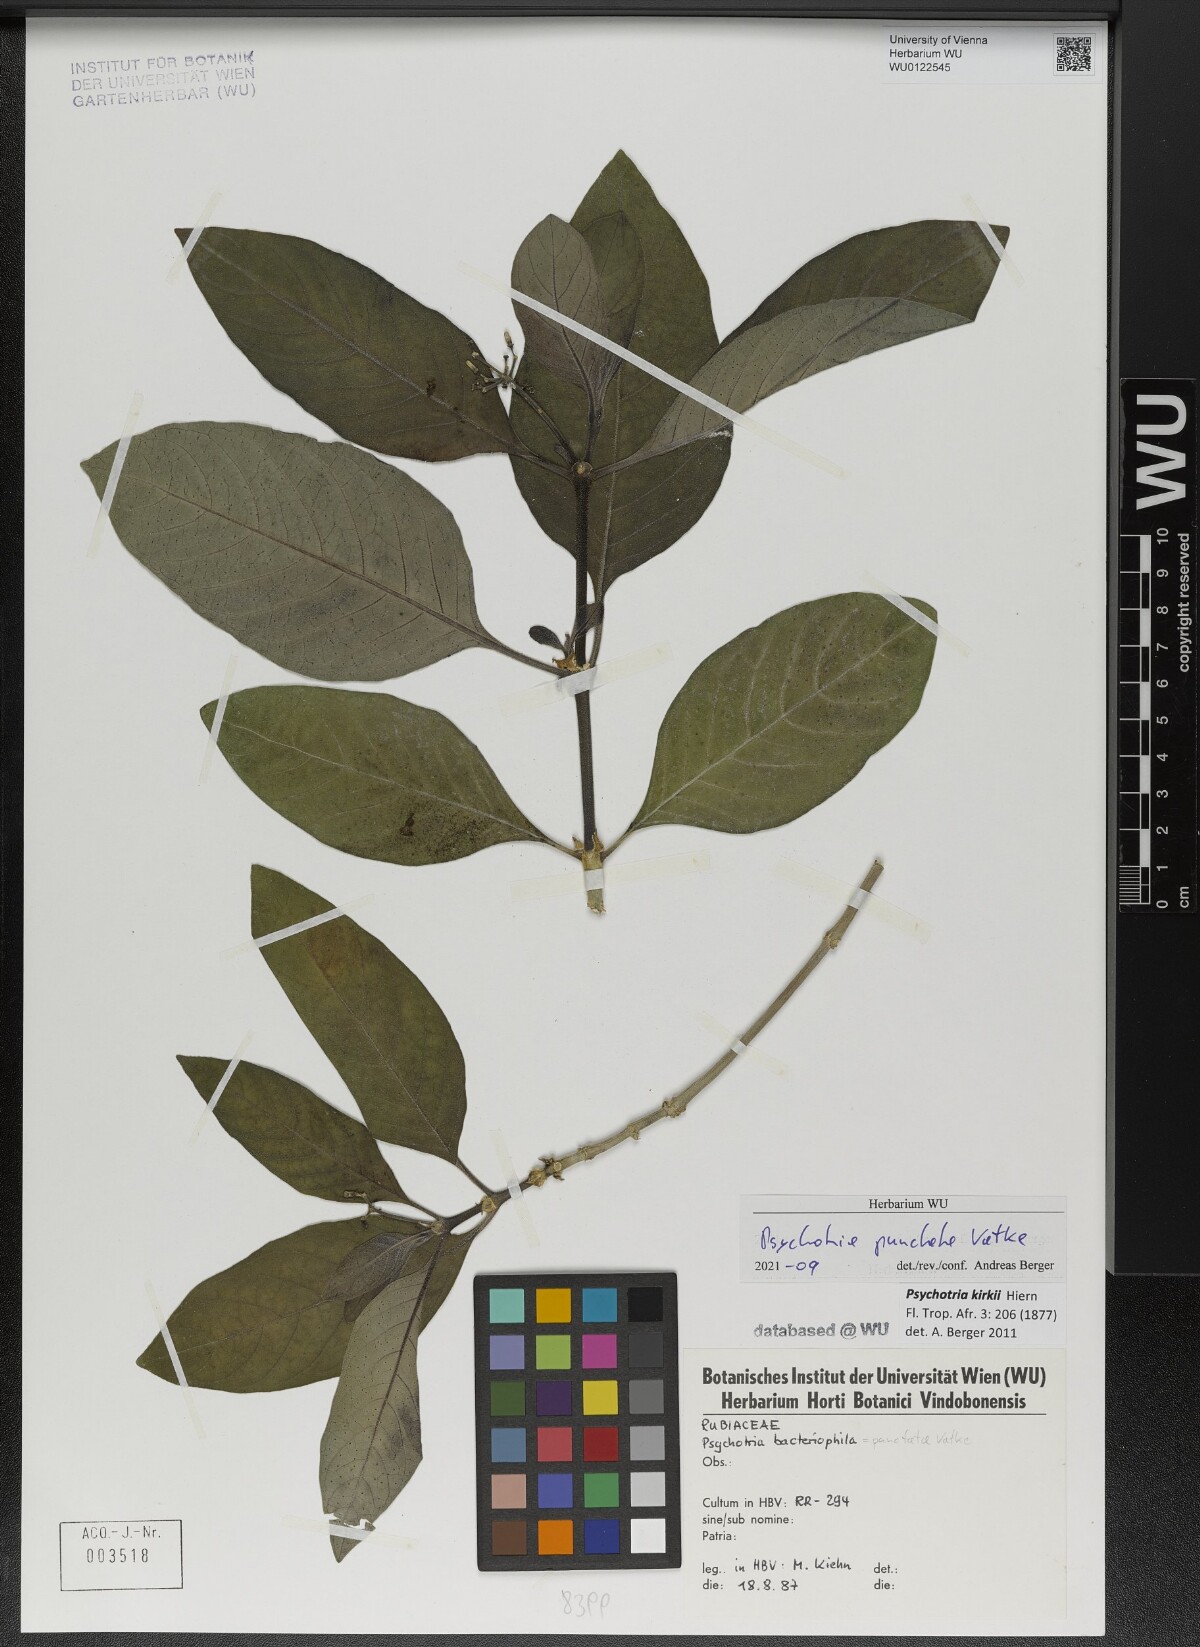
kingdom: Plantae
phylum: Tracheophyta
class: Magnoliopsida
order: Gentianales
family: Rubiaceae
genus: Psychotria
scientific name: Psychotria punctata
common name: Dotted wild coffee
